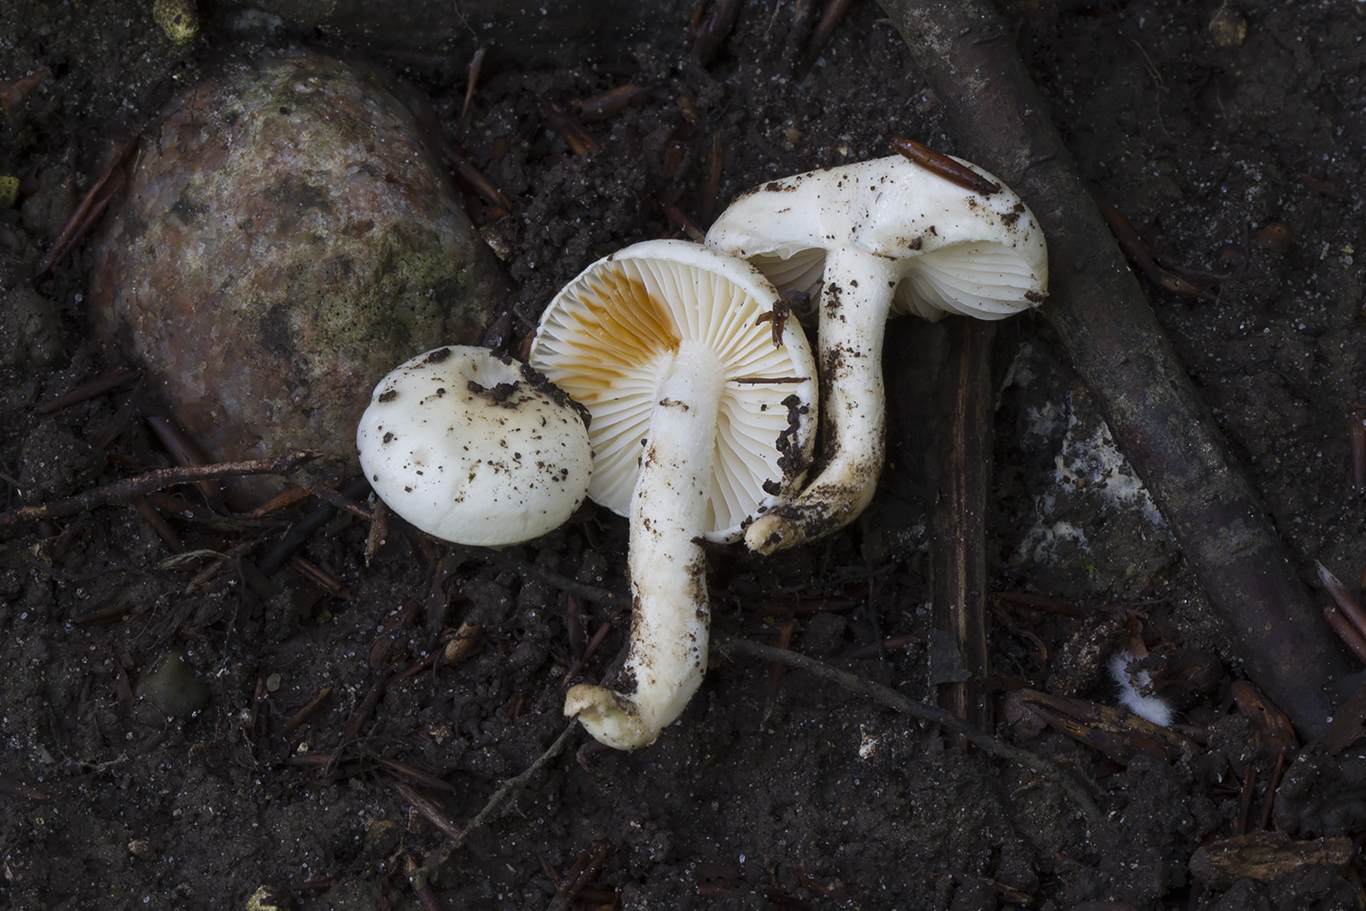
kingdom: Fungi
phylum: Basidiomycota
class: Agaricomycetes
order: Agaricales
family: Hygrophoraceae
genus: Hygrophorus
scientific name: Hygrophorus discoxanthus
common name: ildelugtende sneglehat
